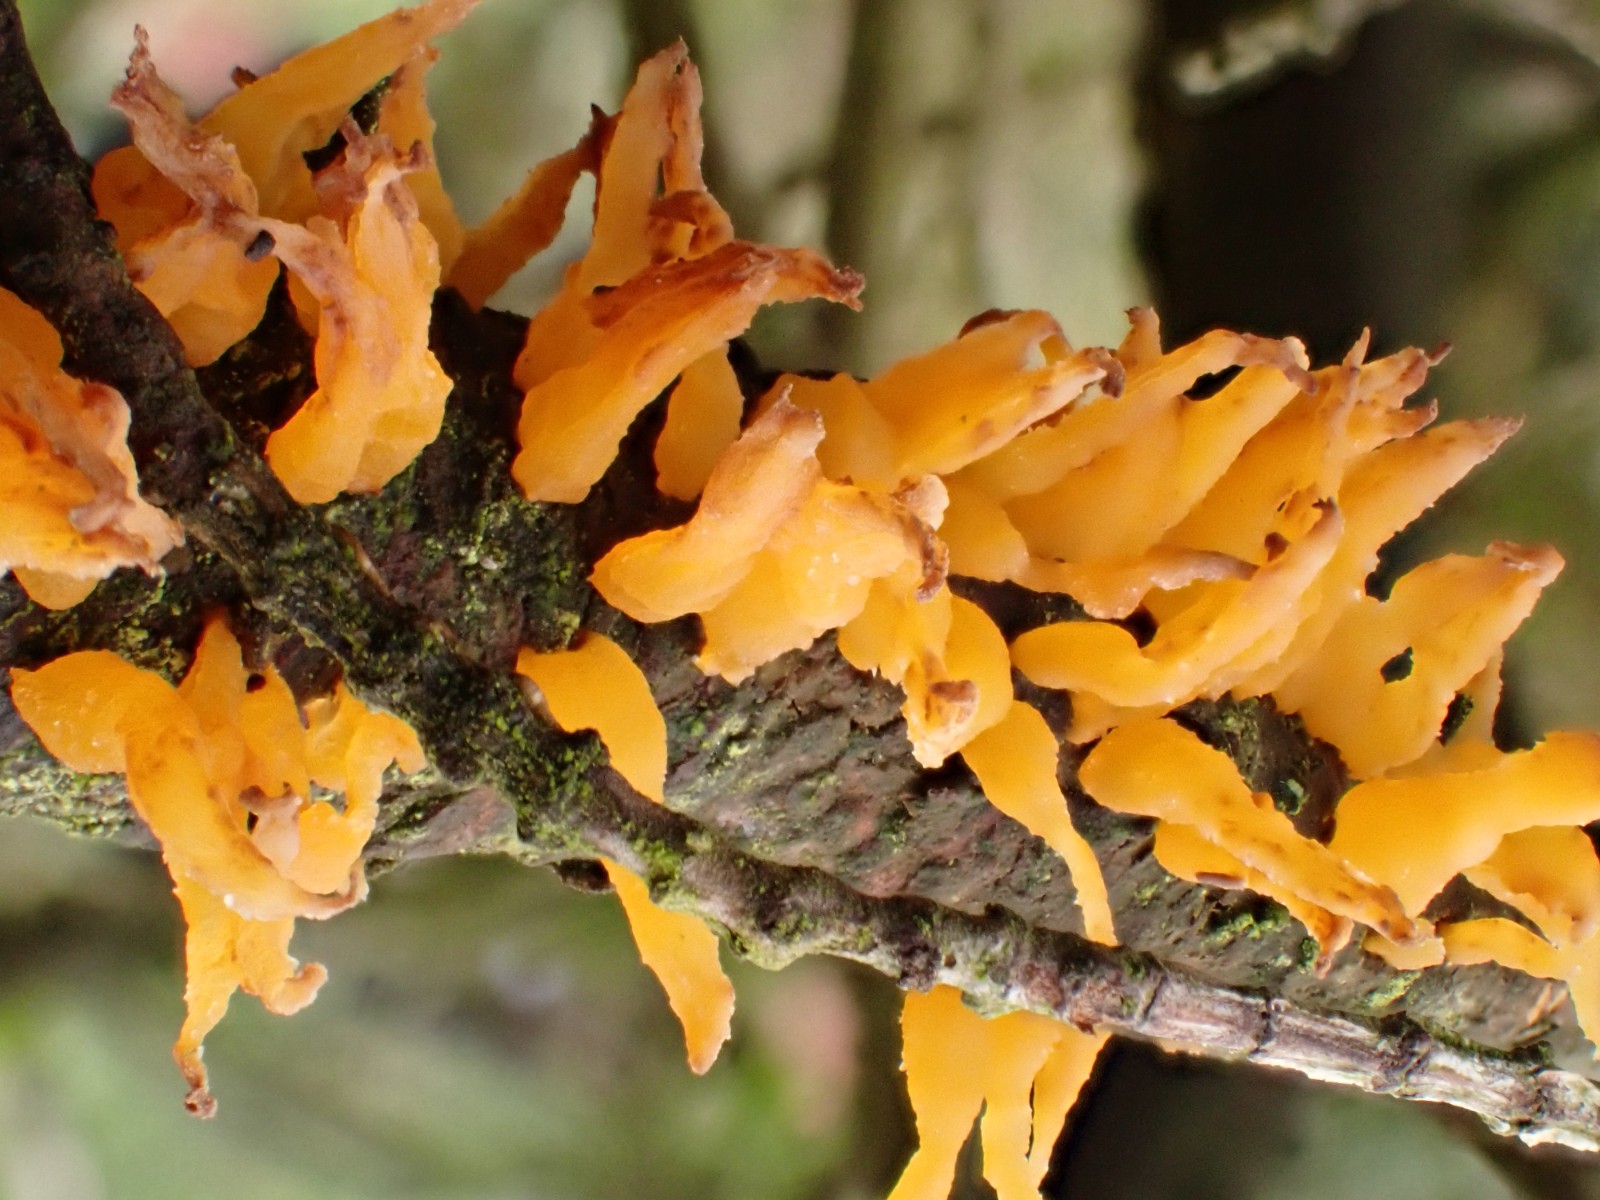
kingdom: Fungi
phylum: Basidiomycota
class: Pucciniomycetes
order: Pucciniales
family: Gymnosporangiaceae
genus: Gymnosporangium
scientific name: Gymnosporangium clavariiforme
